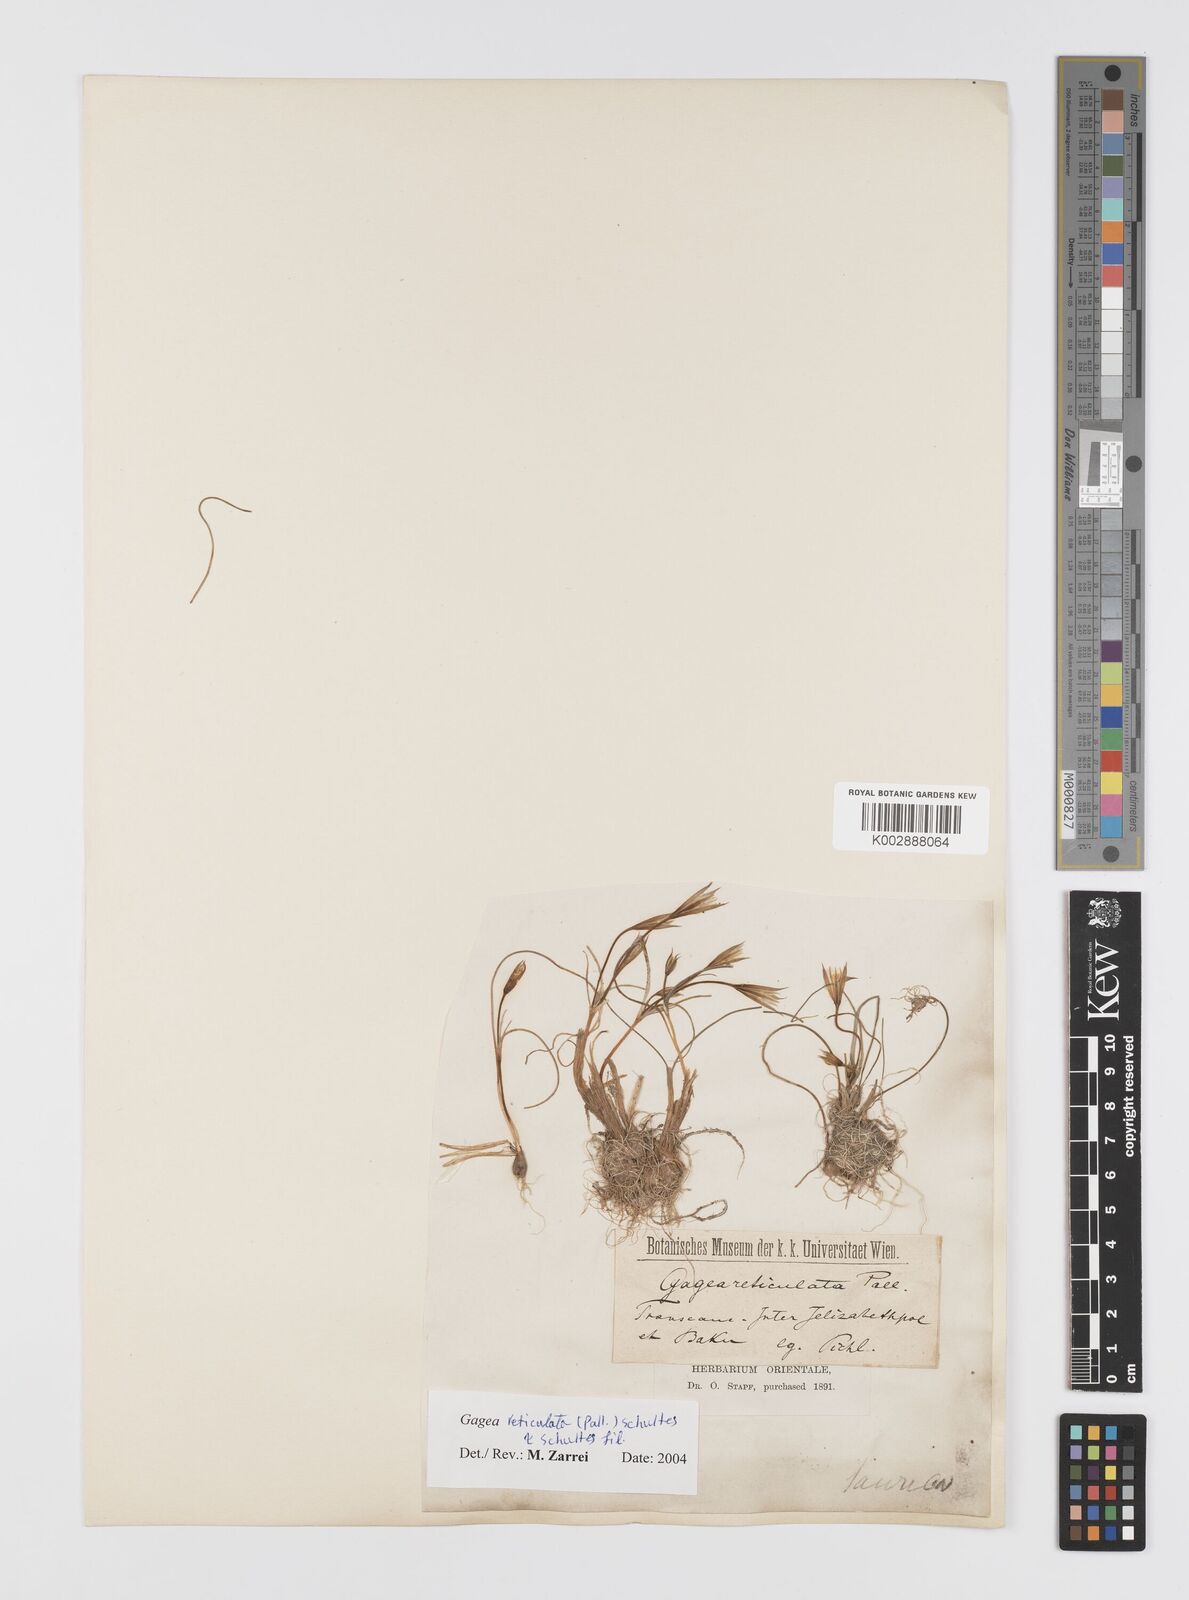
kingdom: Plantae
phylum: Tracheophyta
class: Liliopsida
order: Liliales
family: Liliaceae
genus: Gagea
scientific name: Gagea reticulata
